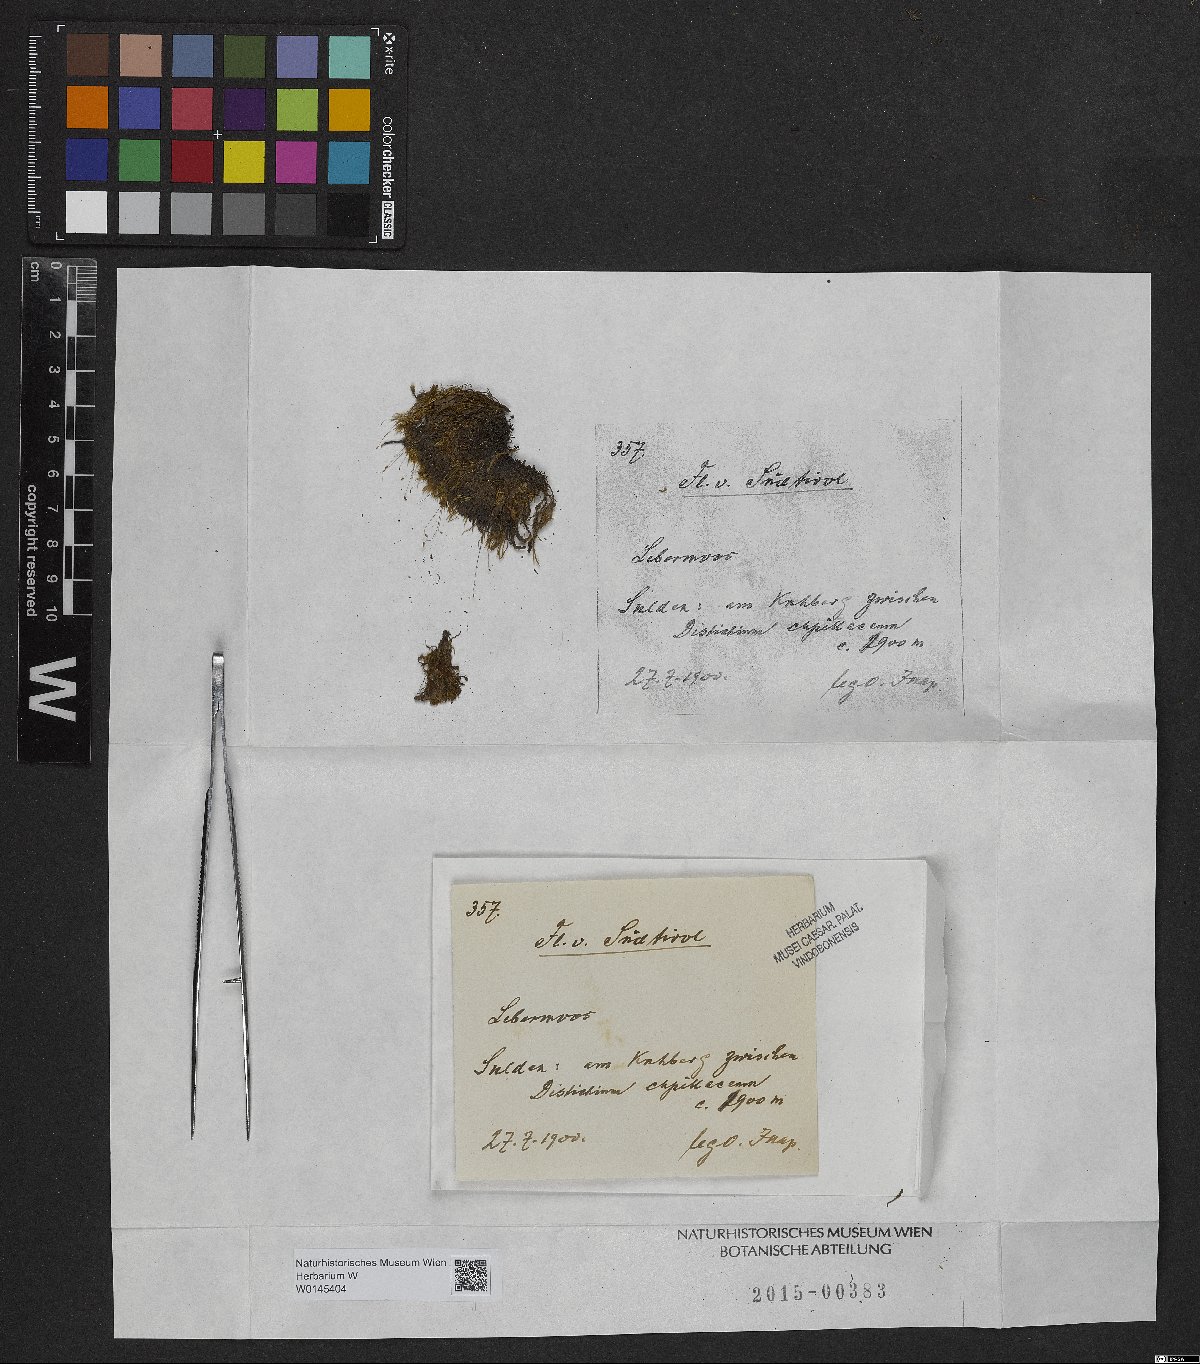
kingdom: Plantae
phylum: Marchantiophyta
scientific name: Marchantiophyta
